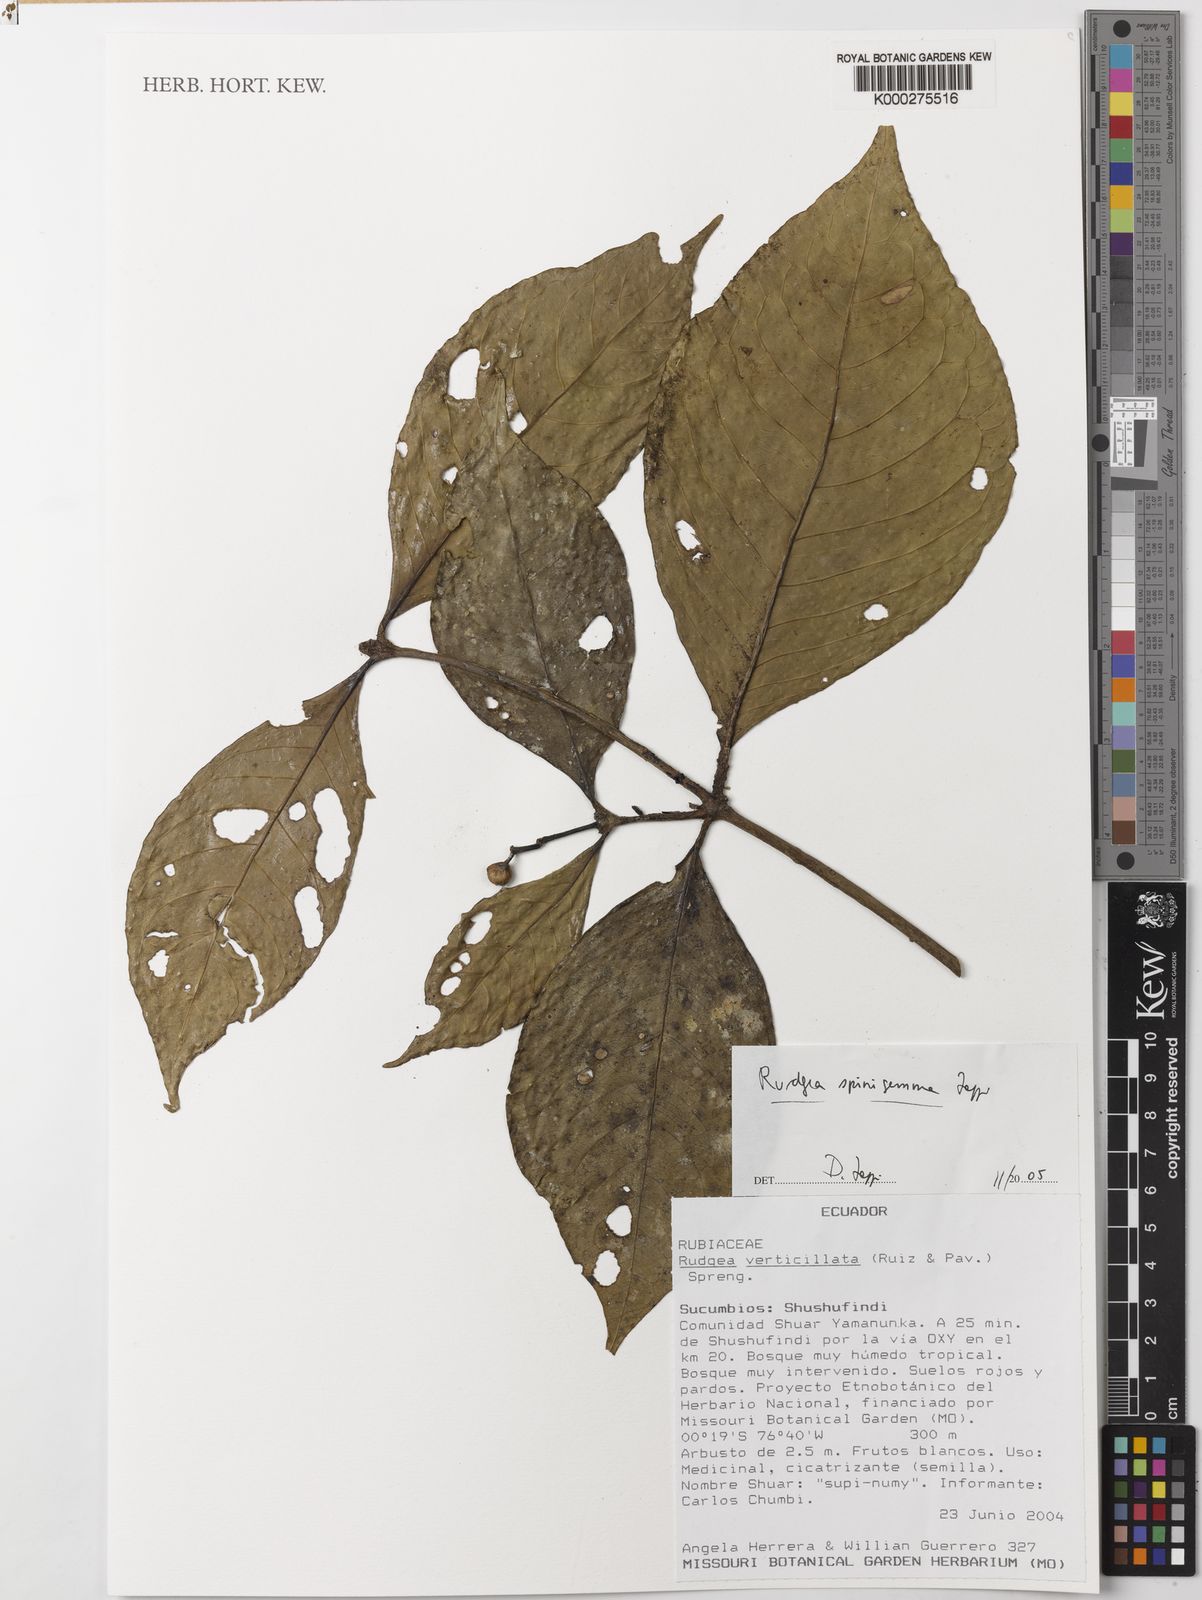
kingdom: Plantae
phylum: Tracheophyta
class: Magnoliopsida
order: Gentianales
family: Rubiaceae
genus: Rudgea
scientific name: Rudgea spinigemma
